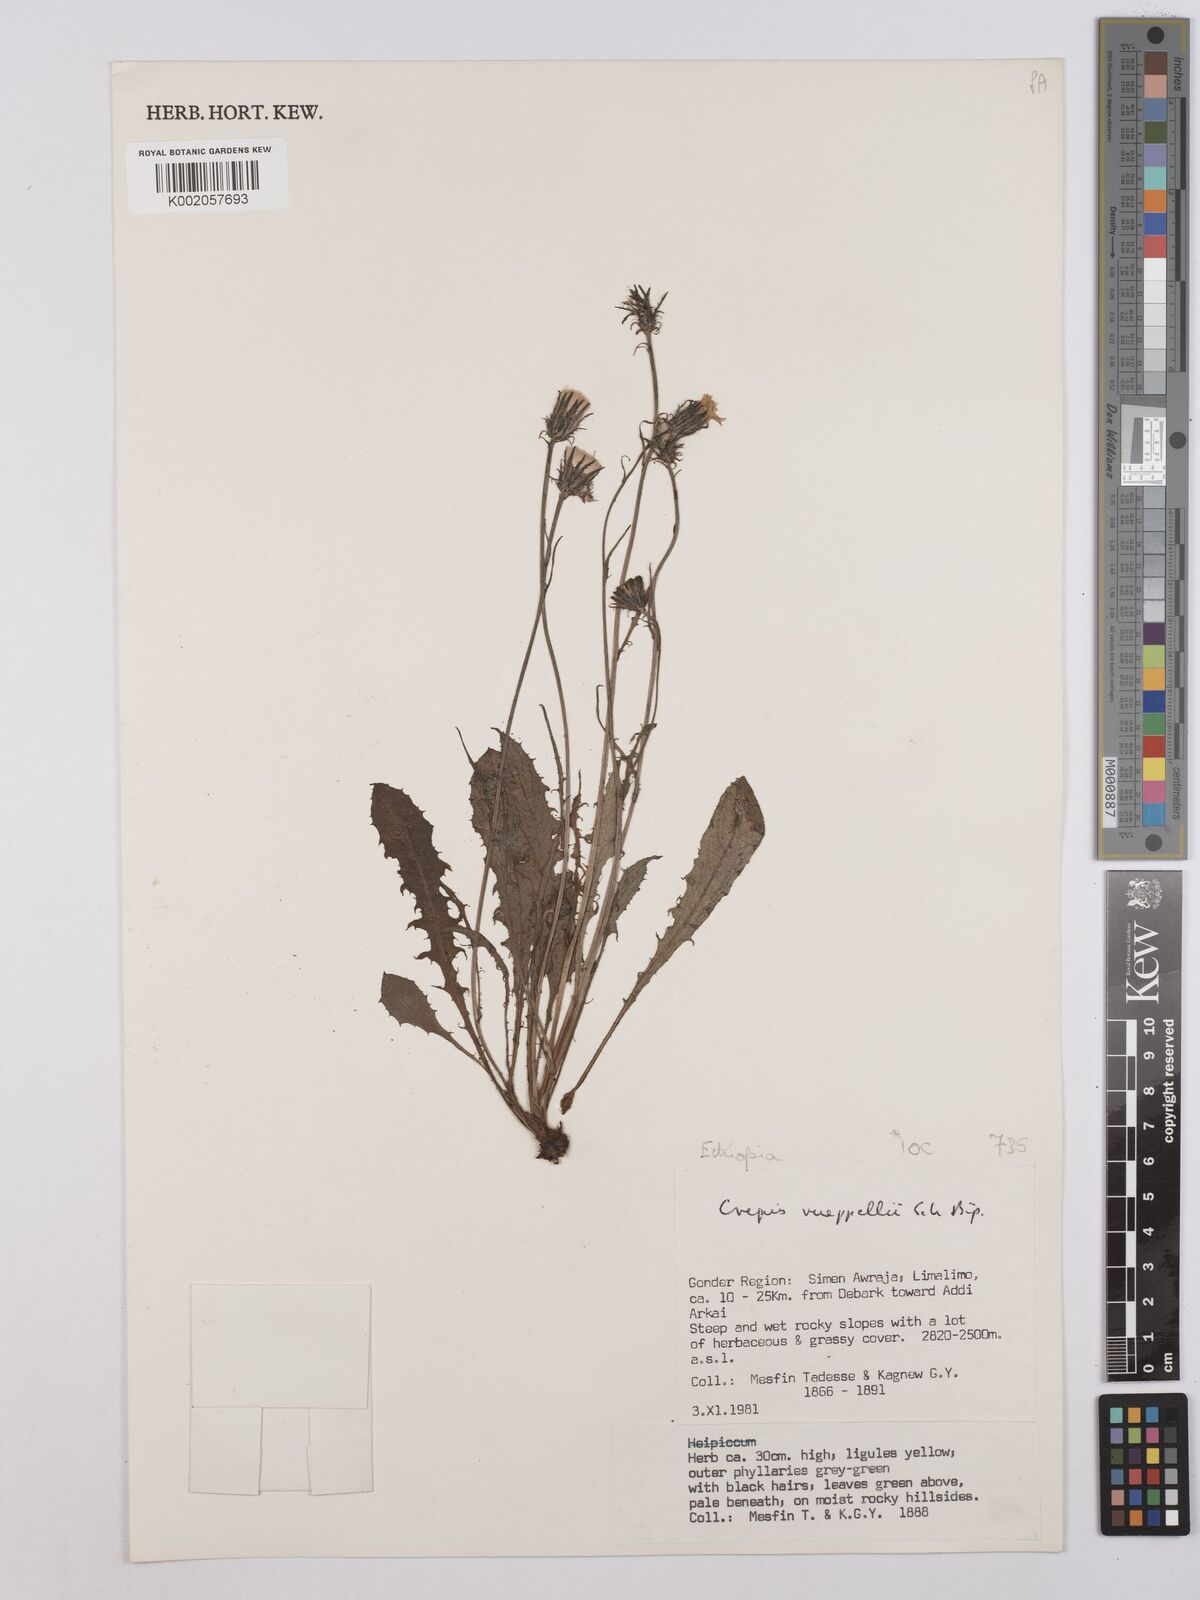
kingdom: Plantae
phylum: Tracheophyta
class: Magnoliopsida
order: Asterales
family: Asteraceae
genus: Crepis
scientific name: Crepis rueppellii
